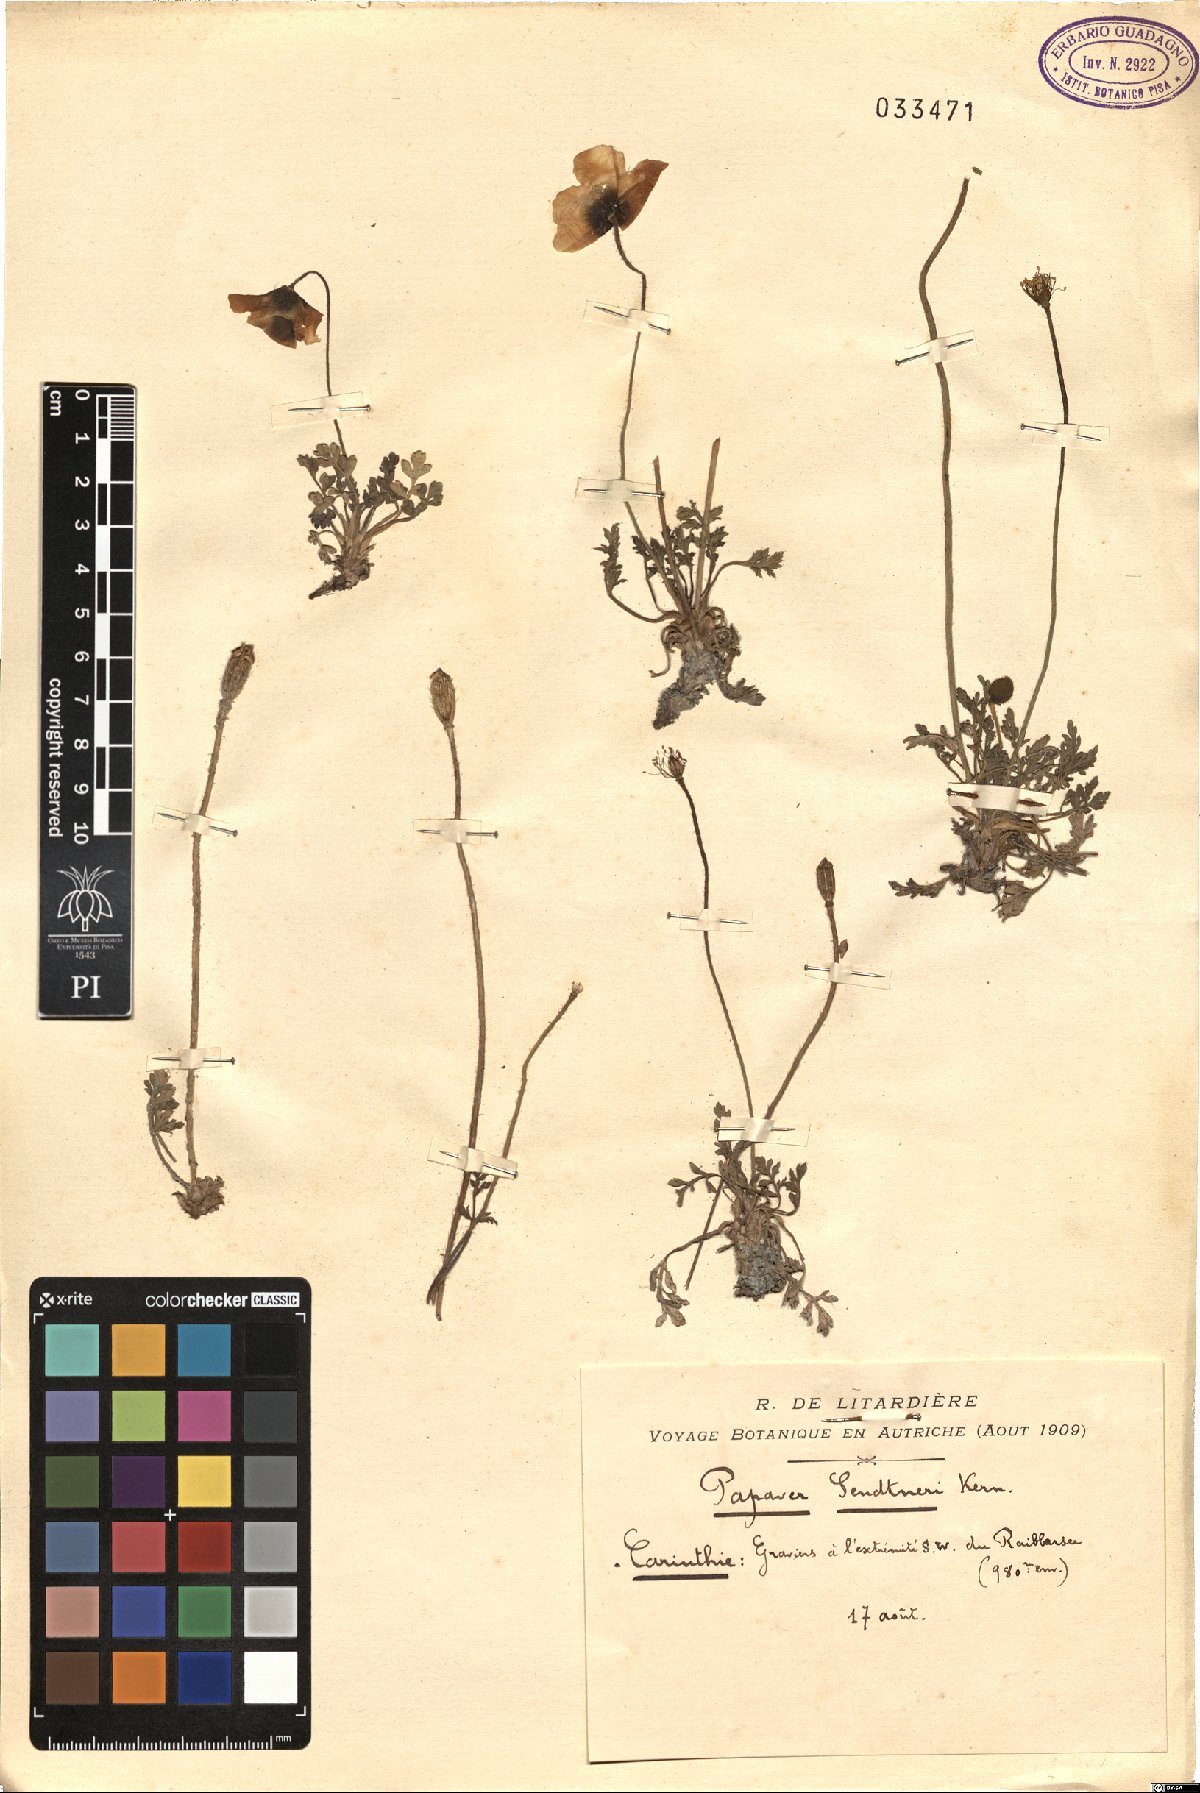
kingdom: Plantae
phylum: Tracheophyta
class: Magnoliopsida
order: Ranunculales
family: Papaveraceae
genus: Papaver
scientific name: Papaver alpinum
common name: Austrian poppy
